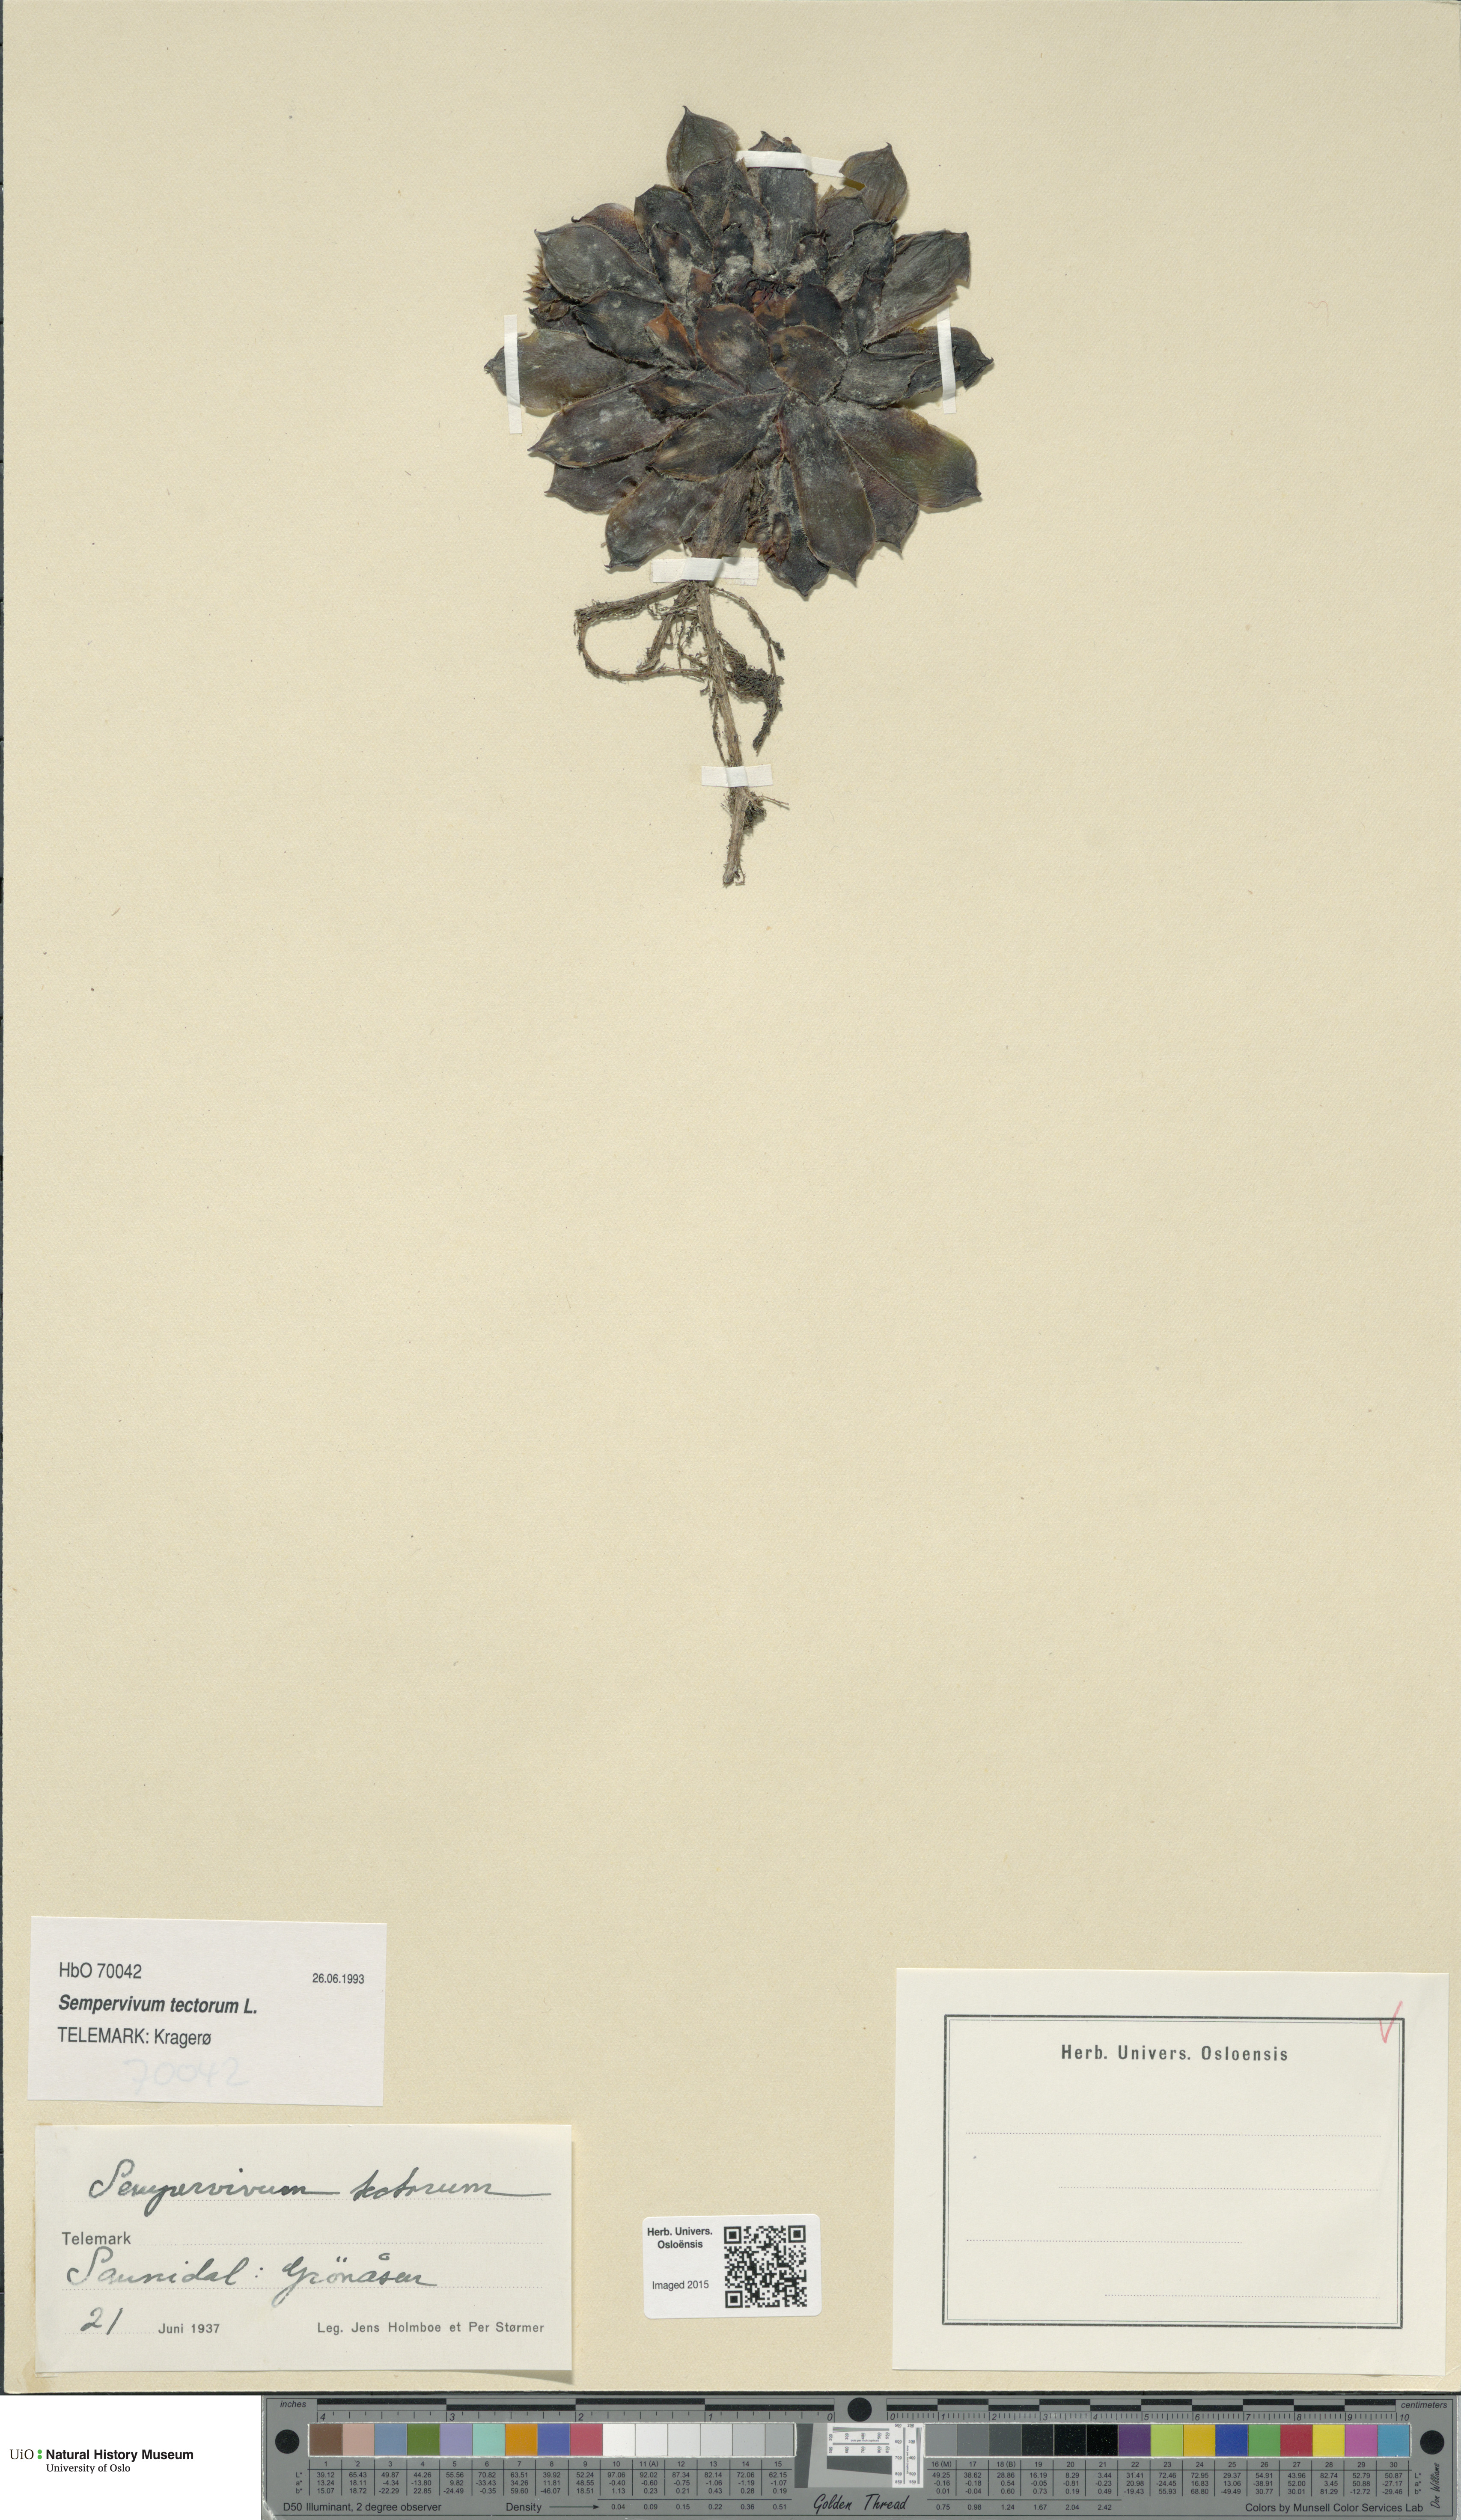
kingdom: Plantae
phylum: Tracheophyta
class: Magnoliopsida
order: Saxifragales
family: Crassulaceae
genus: Sempervivum
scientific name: Sempervivum tectorum
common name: House-leek
